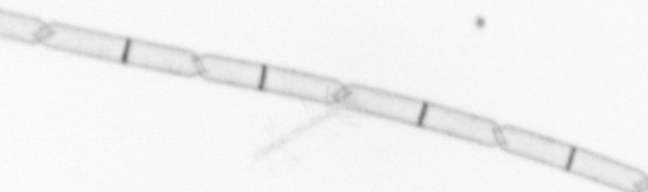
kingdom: Chromista
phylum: Ochrophyta
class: Bacillariophyceae
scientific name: Bacillariophyceae
